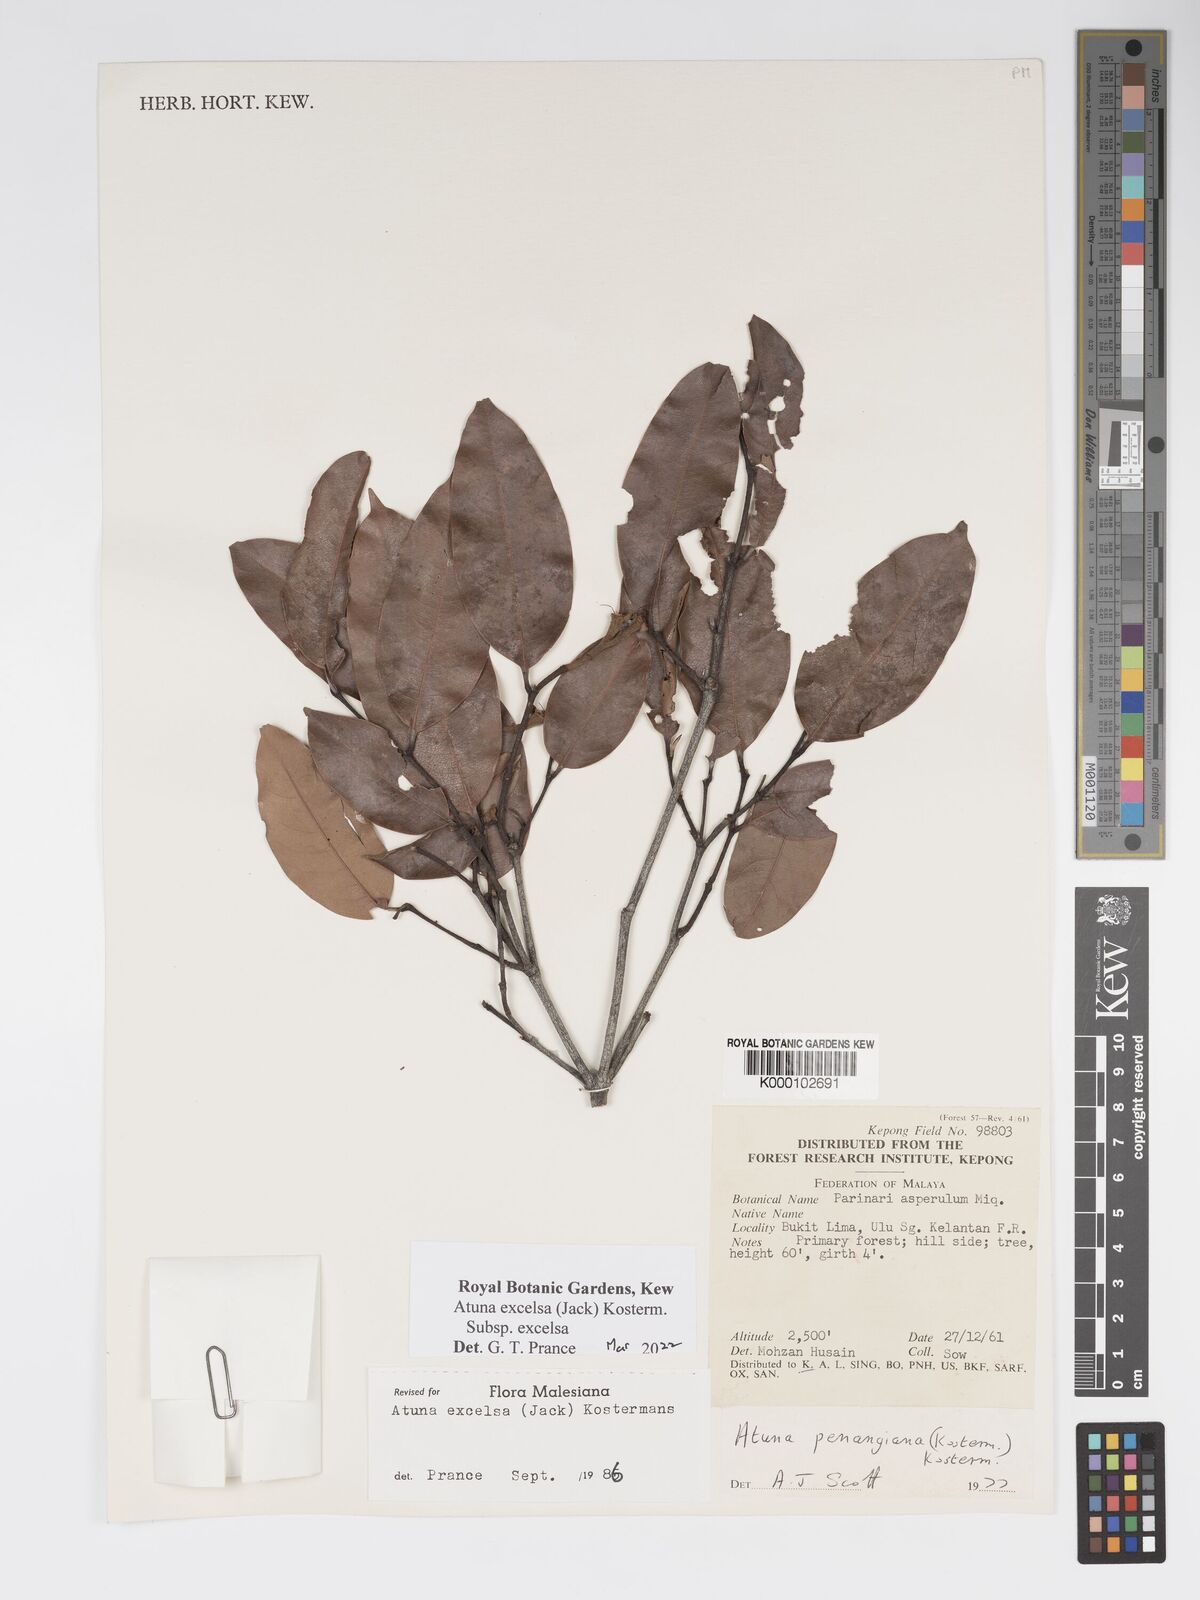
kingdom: Plantae
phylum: Tracheophyta
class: Magnoliopsida
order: Malpighiales
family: Chrysobalanaceae
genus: Atuna
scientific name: Atuna excelsa
